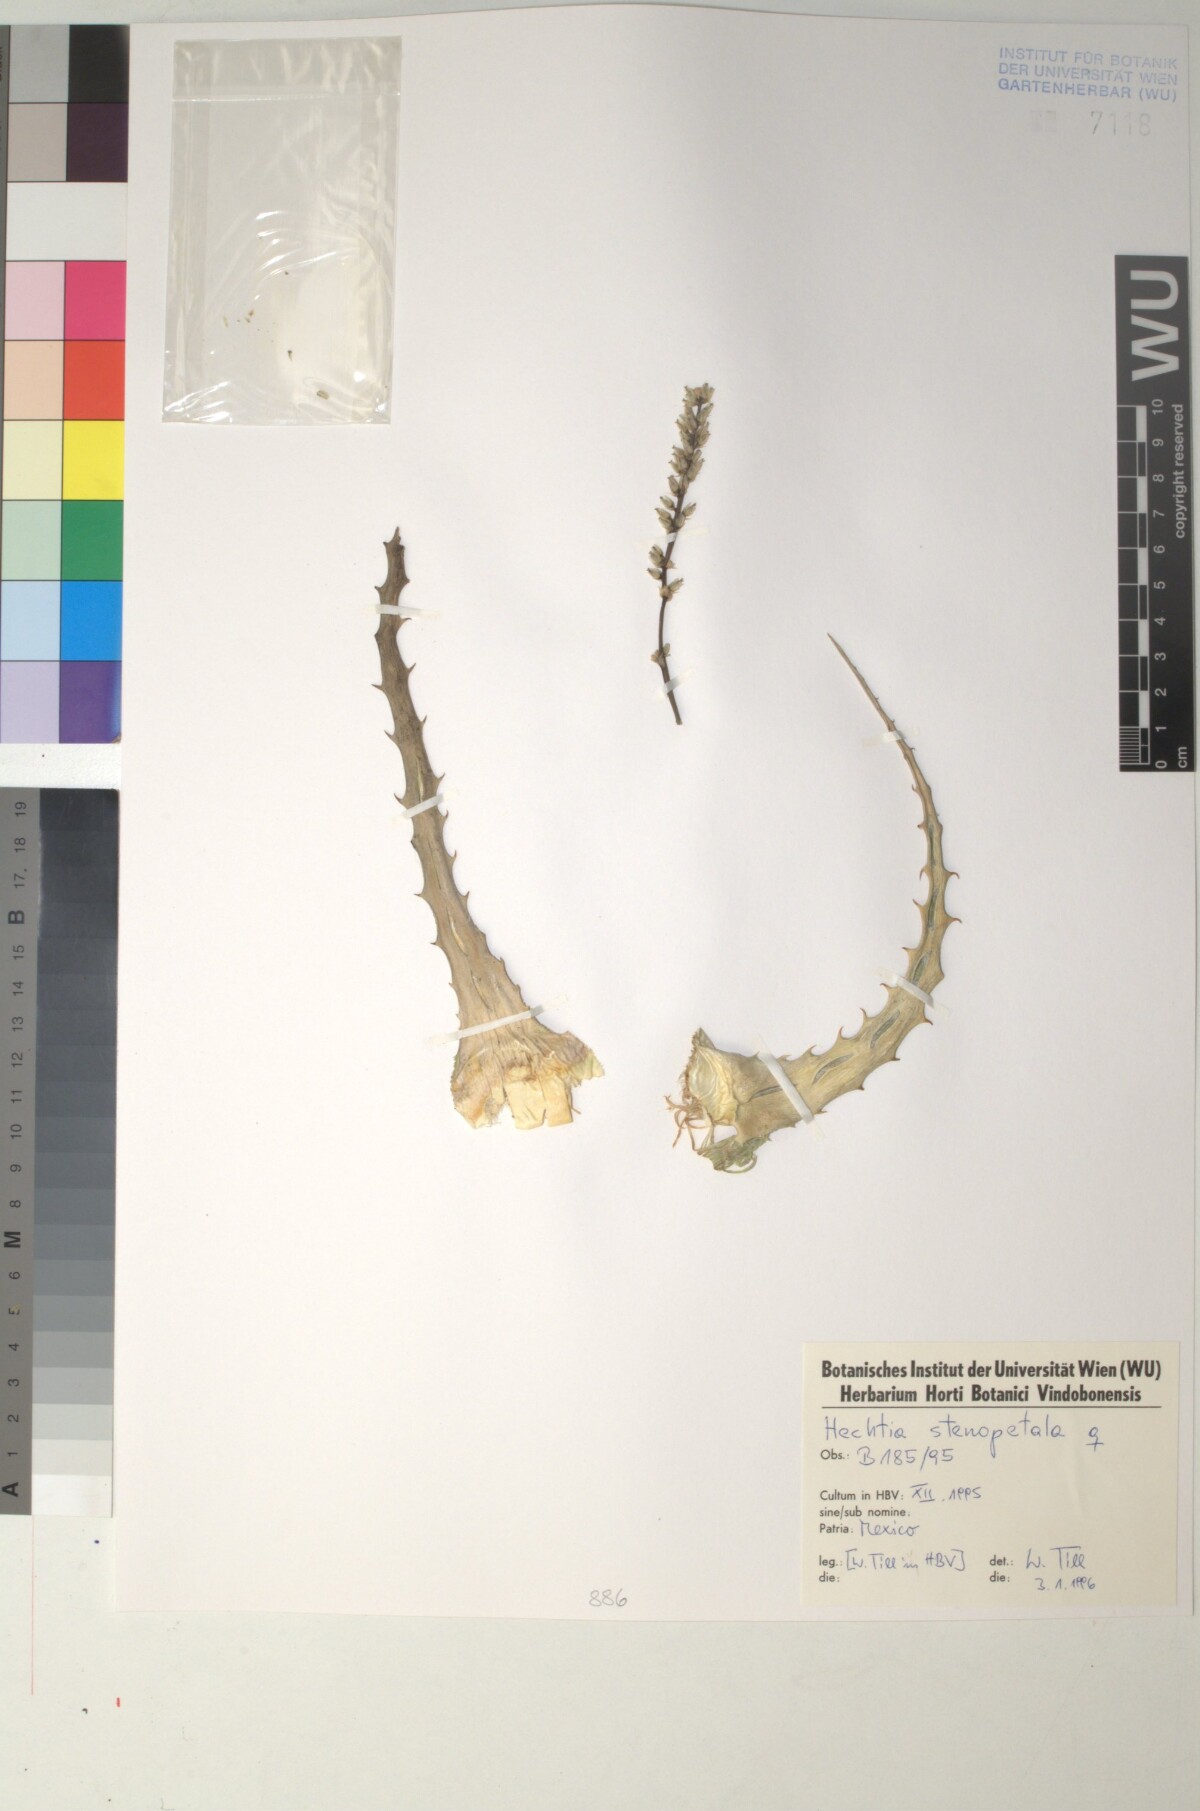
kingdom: Plantae
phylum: Tracheophyta
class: Liliopsida
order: Poales
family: Bromeliaceae
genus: Hechtia
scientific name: Hechtia stenopetala
